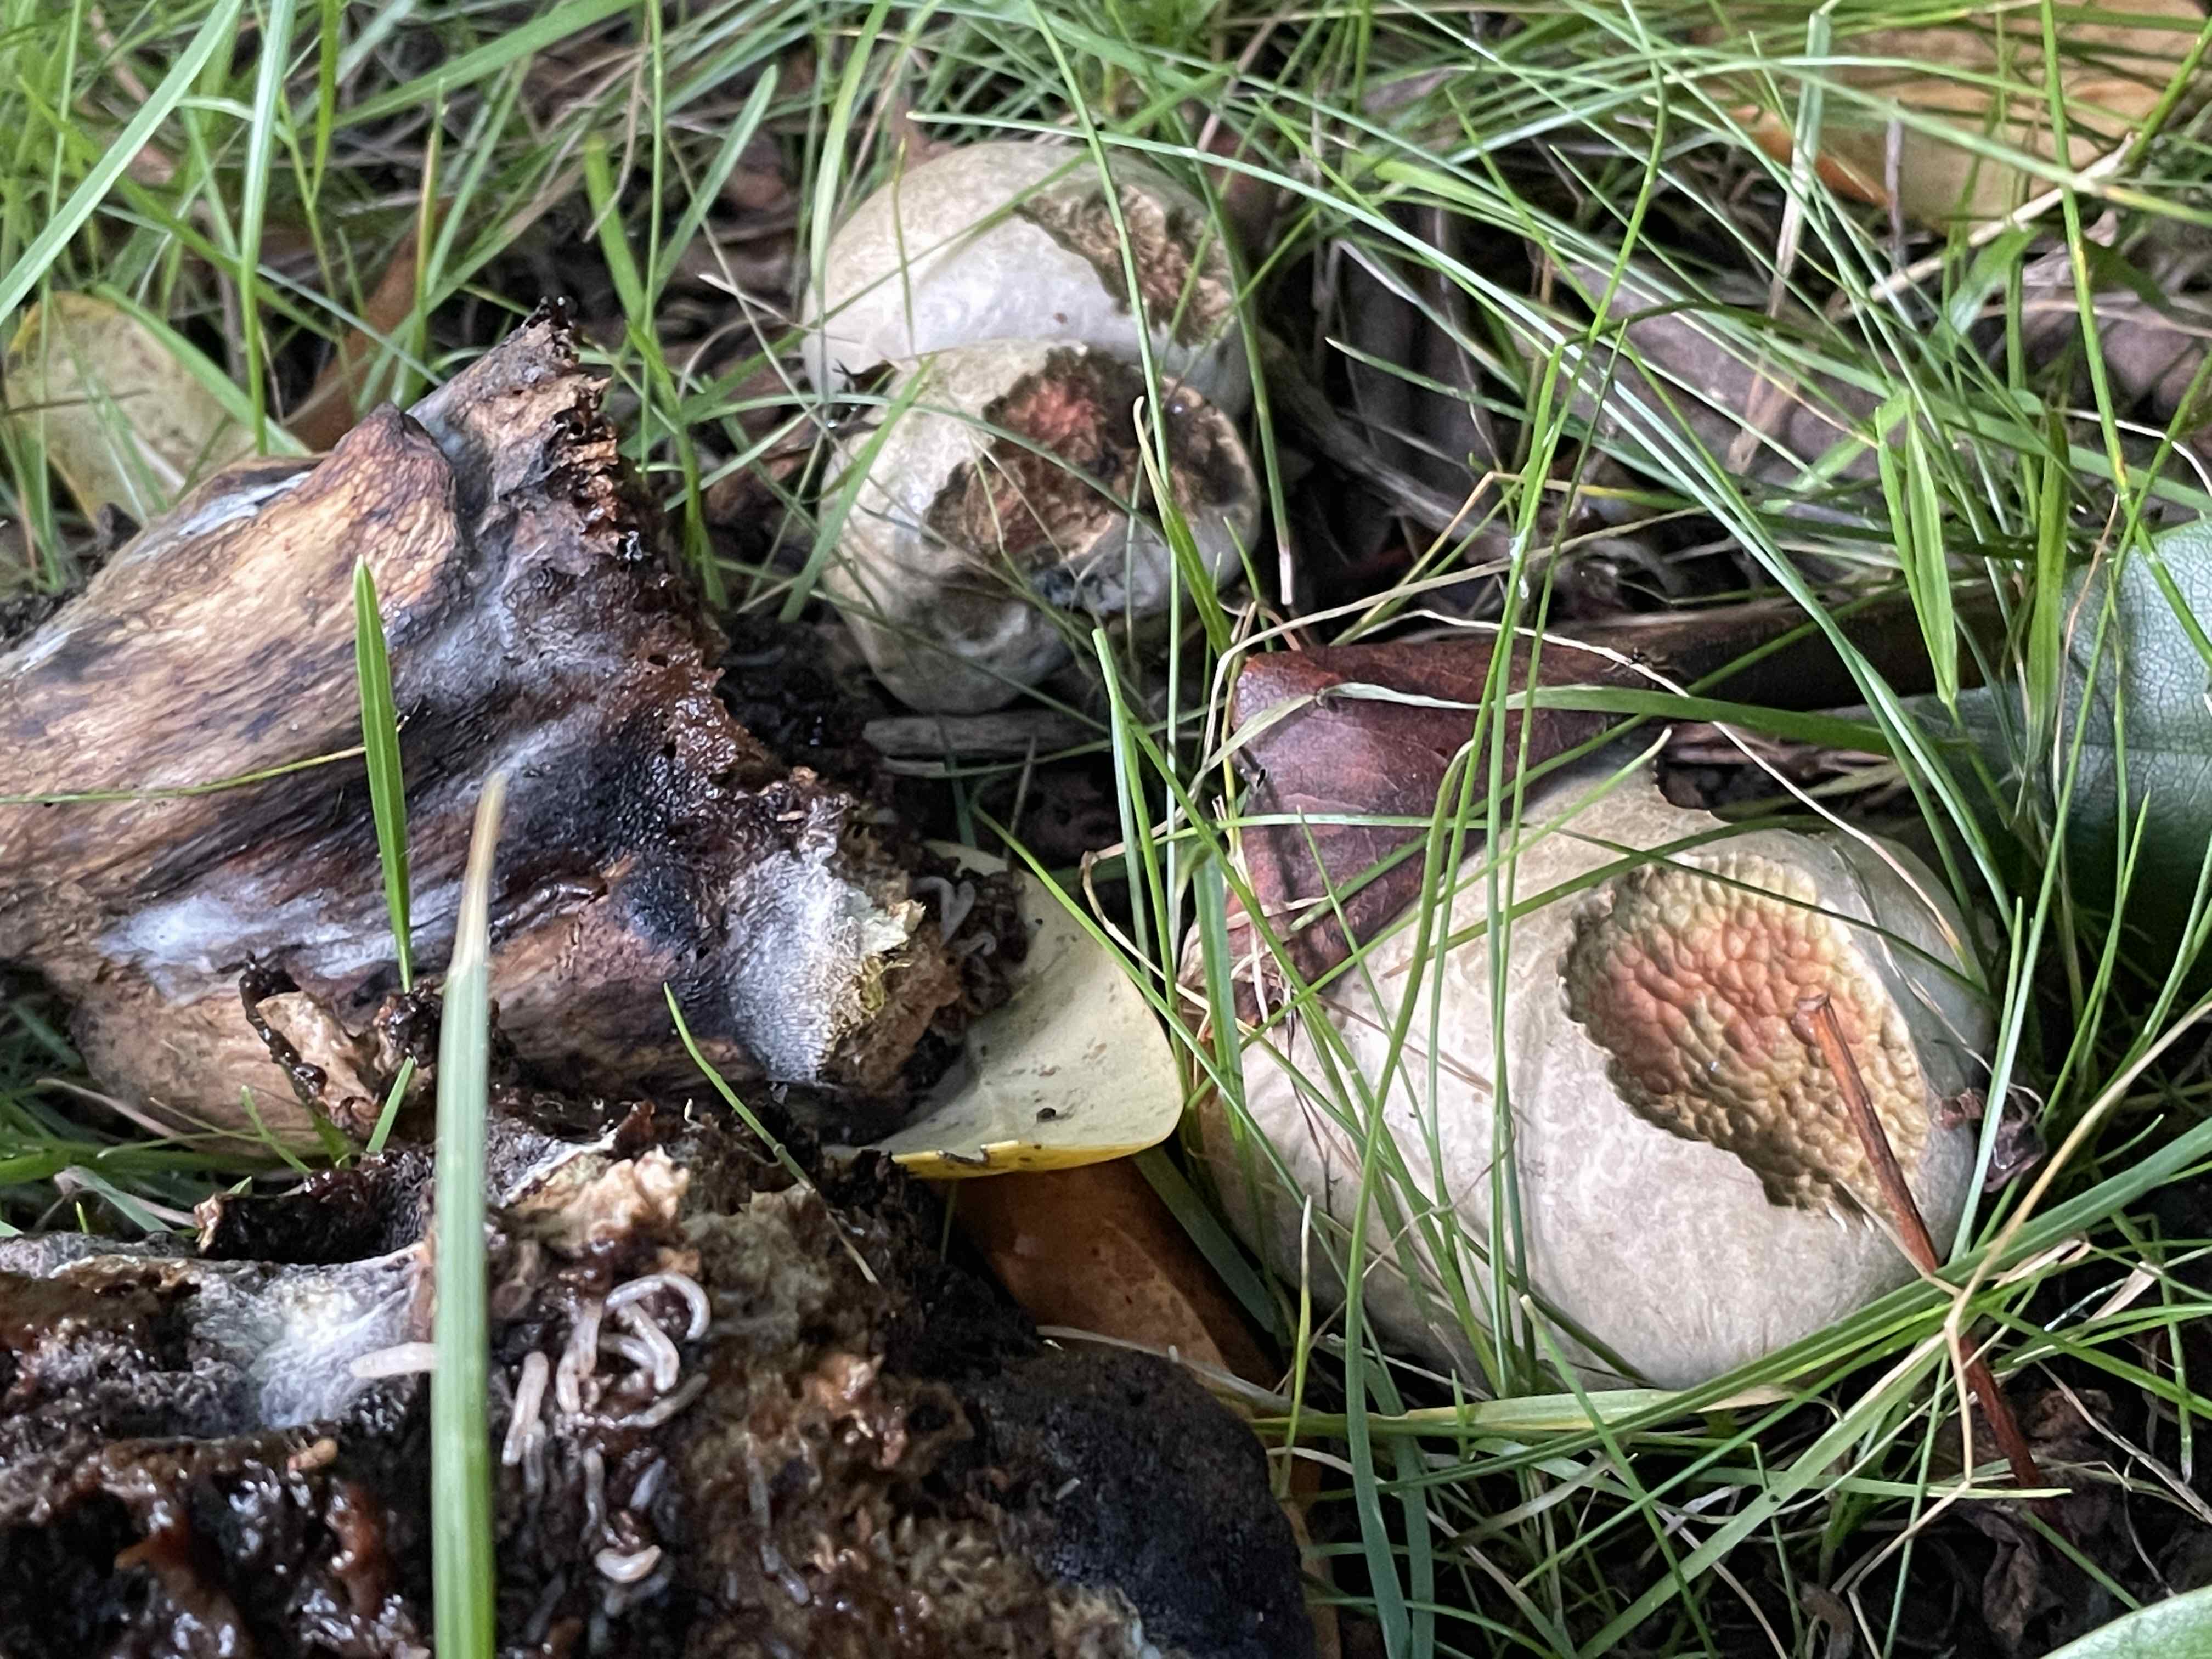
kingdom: Fungi
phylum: Basidiomycota
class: Agaricomycetes
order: Boletales
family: Boletaceae
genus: Caloboletus
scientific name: Caloboletus radicans
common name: rod-rørhat
